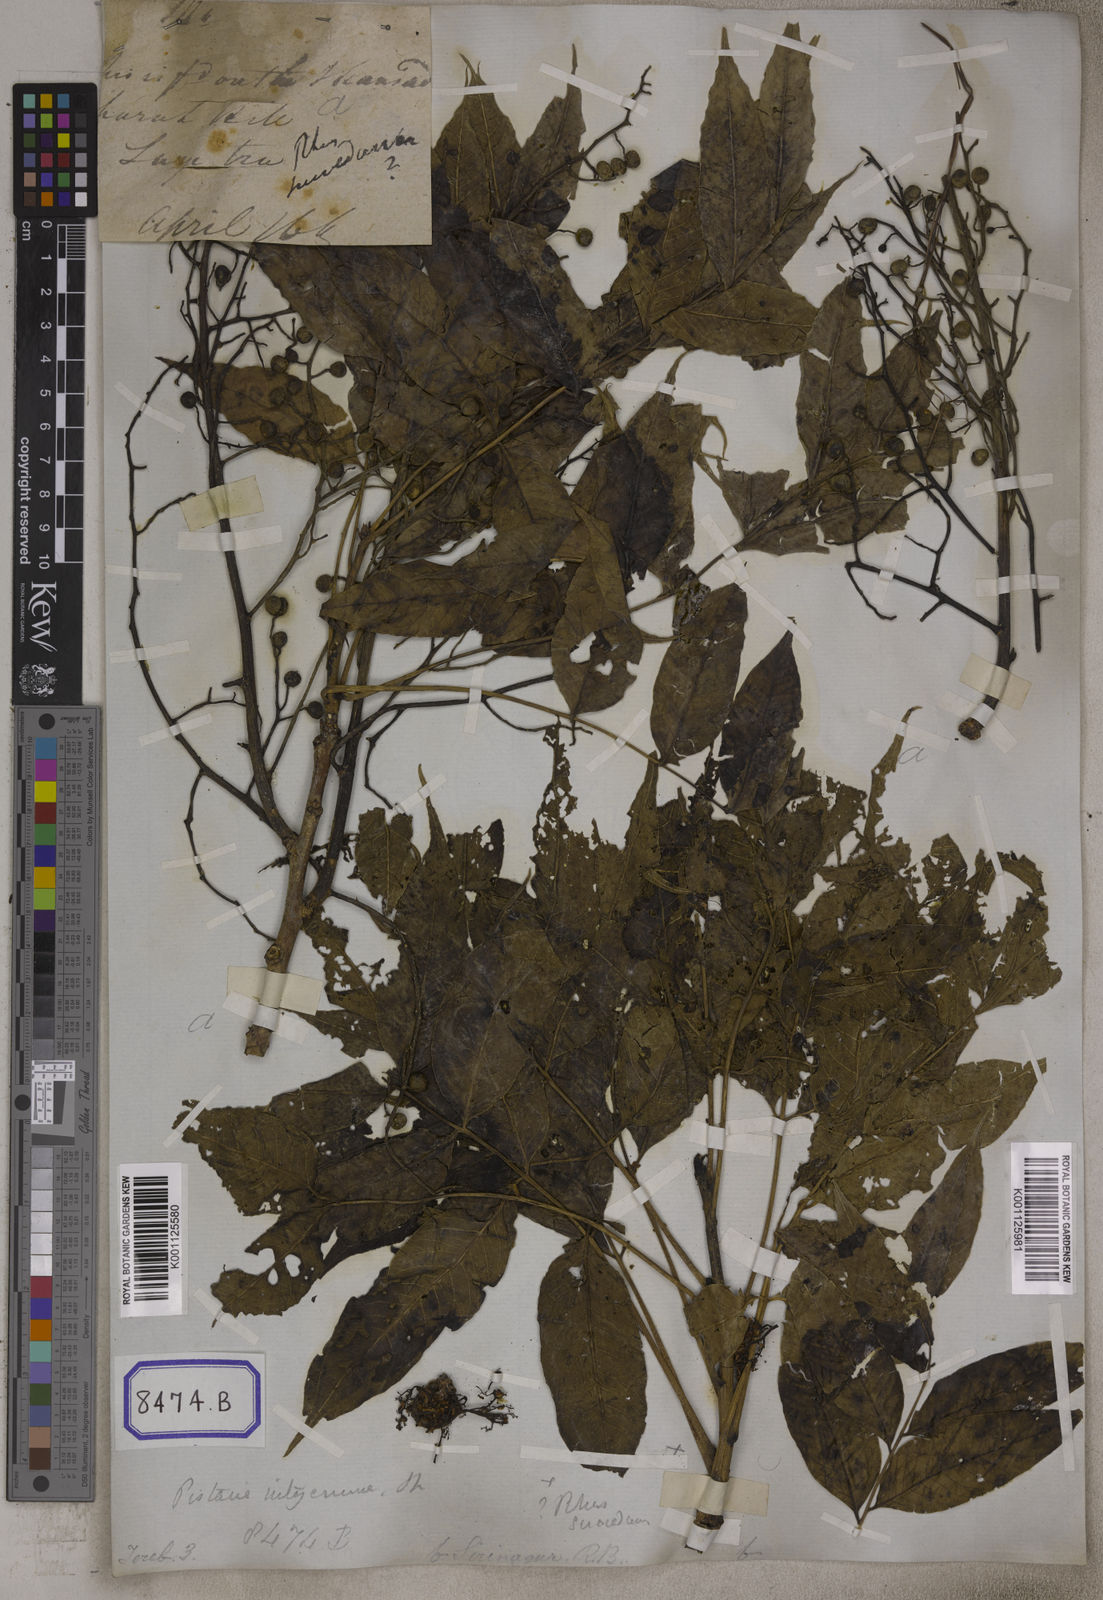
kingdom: Plantae
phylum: Tracheophyta
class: Magnoliopsida
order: Sapindales
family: Anacardiaceae
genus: Pistacia
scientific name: Pistacia chinensis
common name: Chinese pistache
